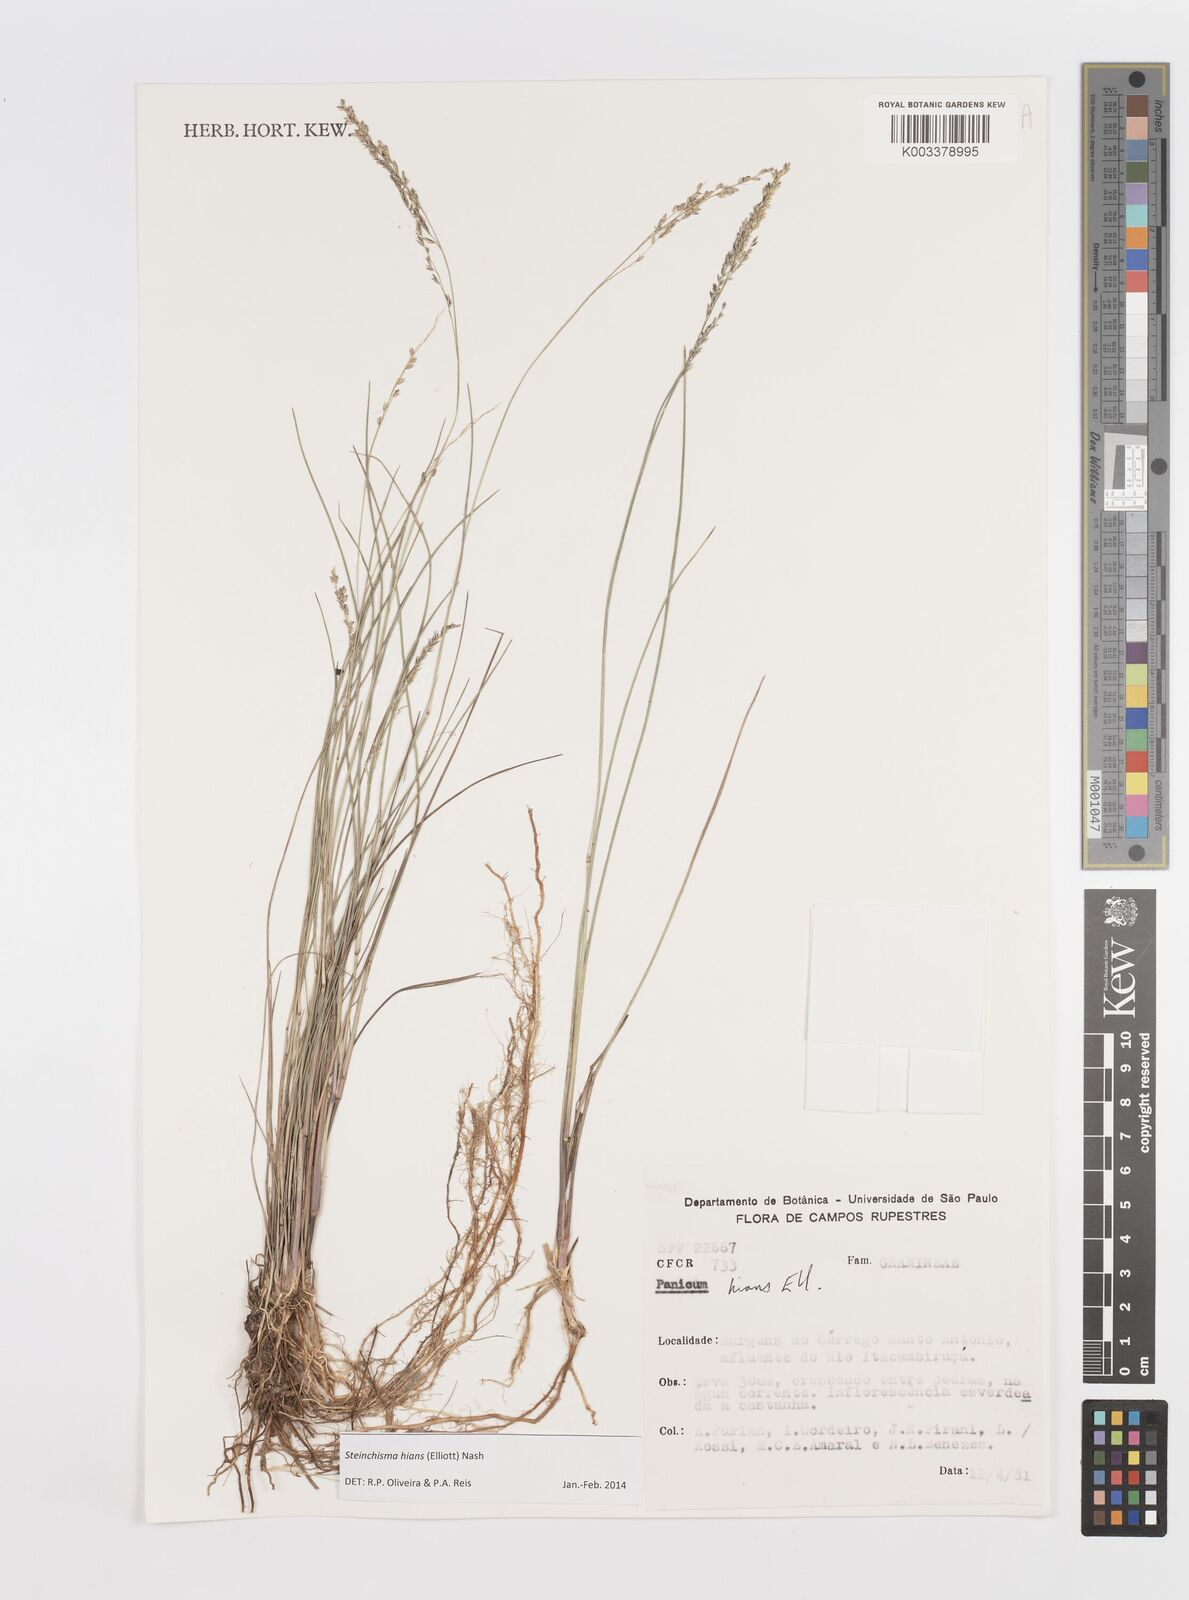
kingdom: Plantae
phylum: Tracheophyta
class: Liliopsida
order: Poales
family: Poaceae
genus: Steinchisma
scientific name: Steinchisma hians
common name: Gaping panic grass
